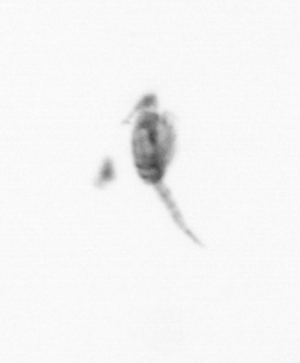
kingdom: Animalia
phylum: Arthropoda
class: Copepoda
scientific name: Copepoda
